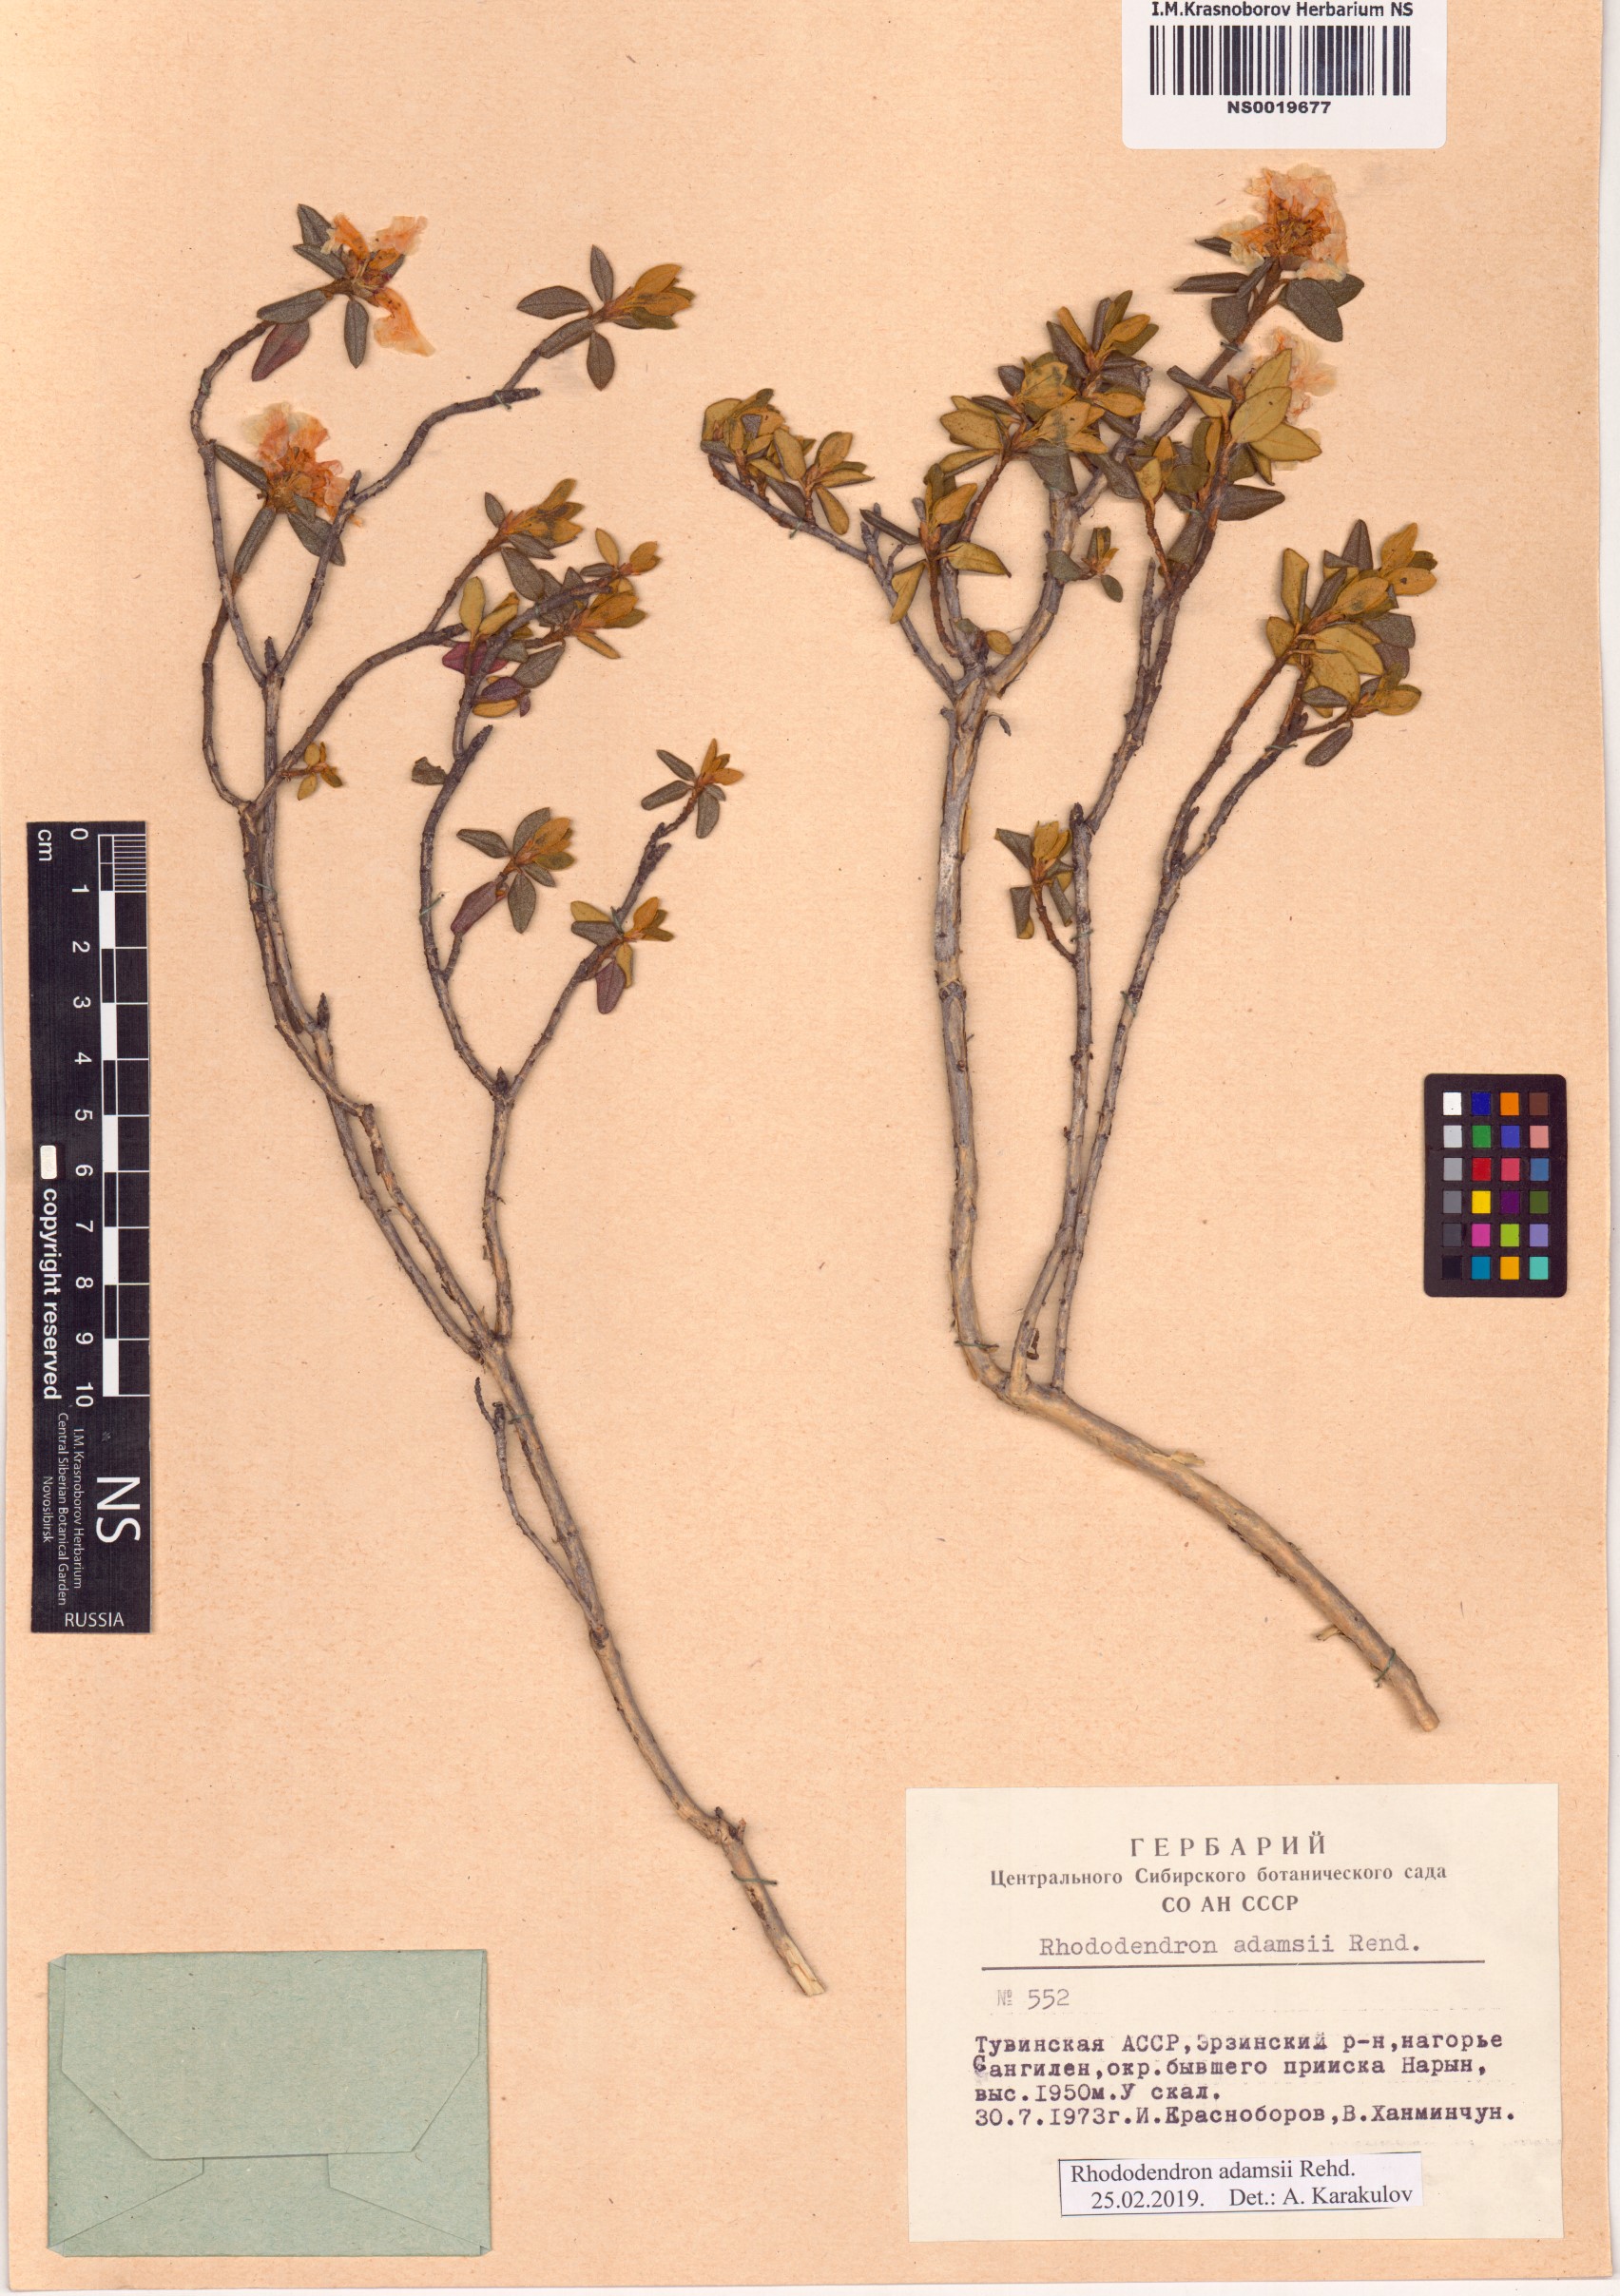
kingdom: Plantae
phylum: Tracheophyta
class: Magnoliopsida
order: Ericales
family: Ericaceae
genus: Rhododendron
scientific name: Rhododendron adamsii
